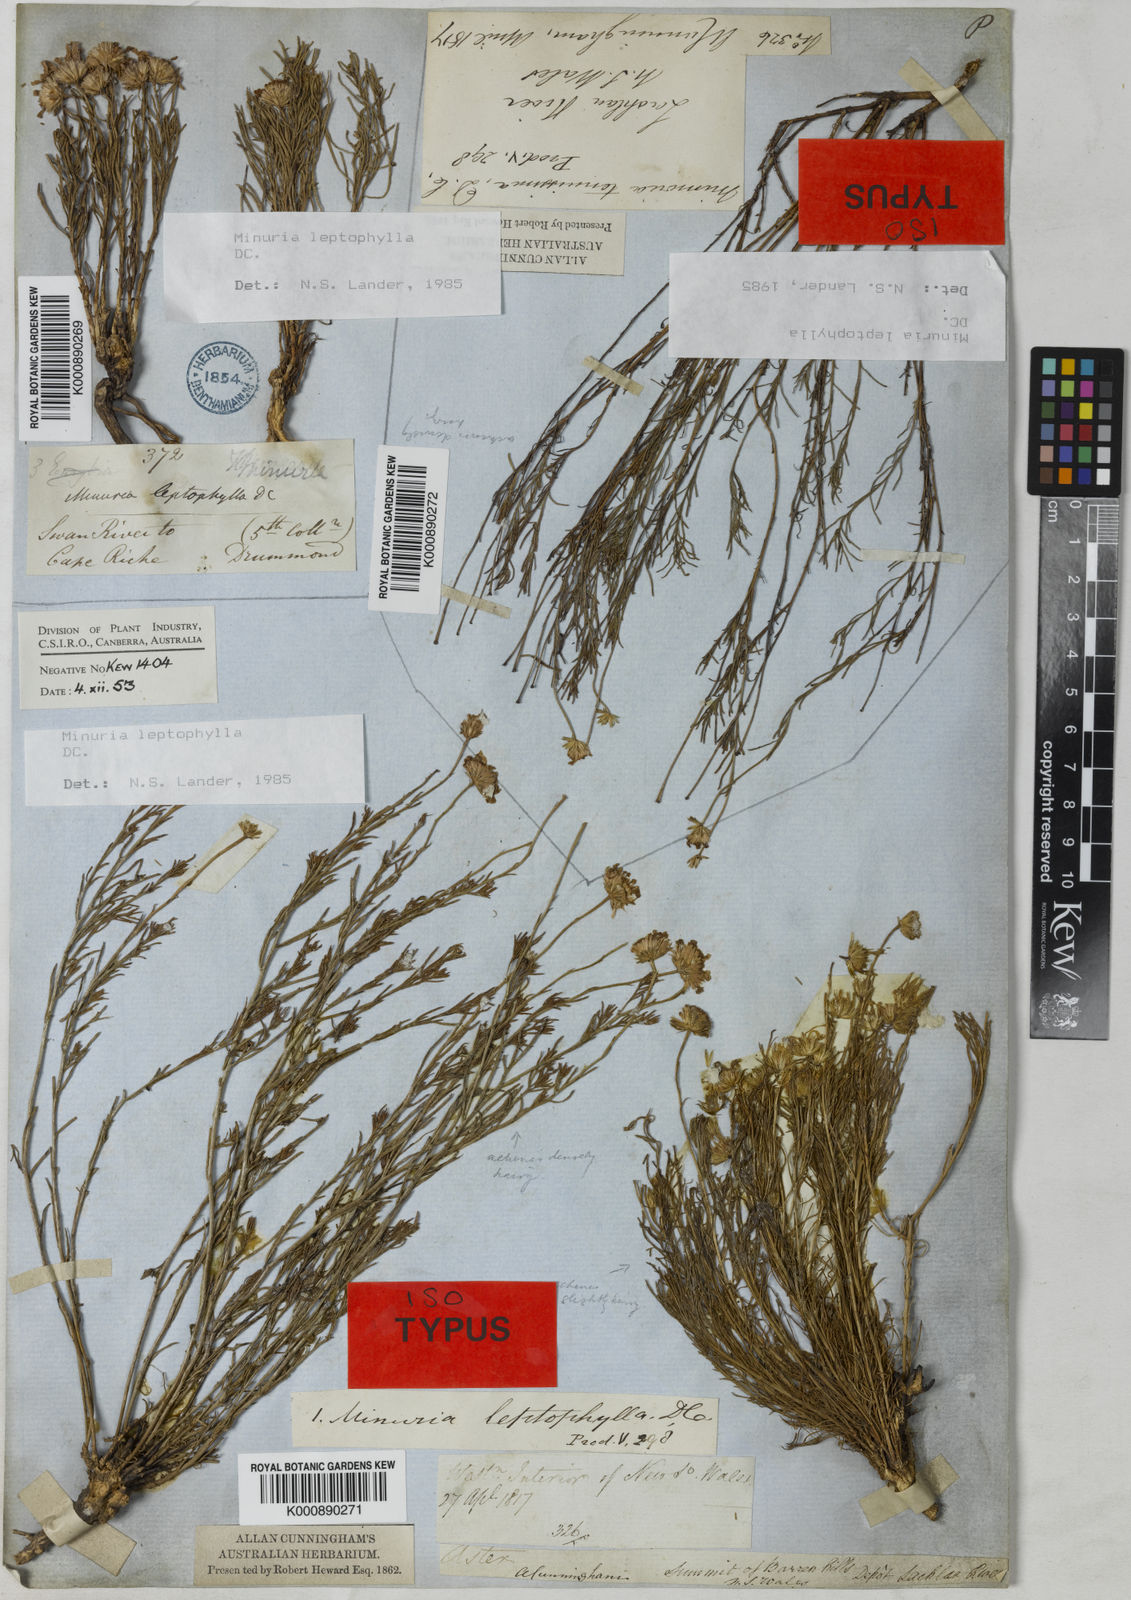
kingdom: Plantae
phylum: Tracheophyta
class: Magnoliopsida
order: Asterales
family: Asteraceae
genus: Minuria
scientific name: Minuria leptophylla
